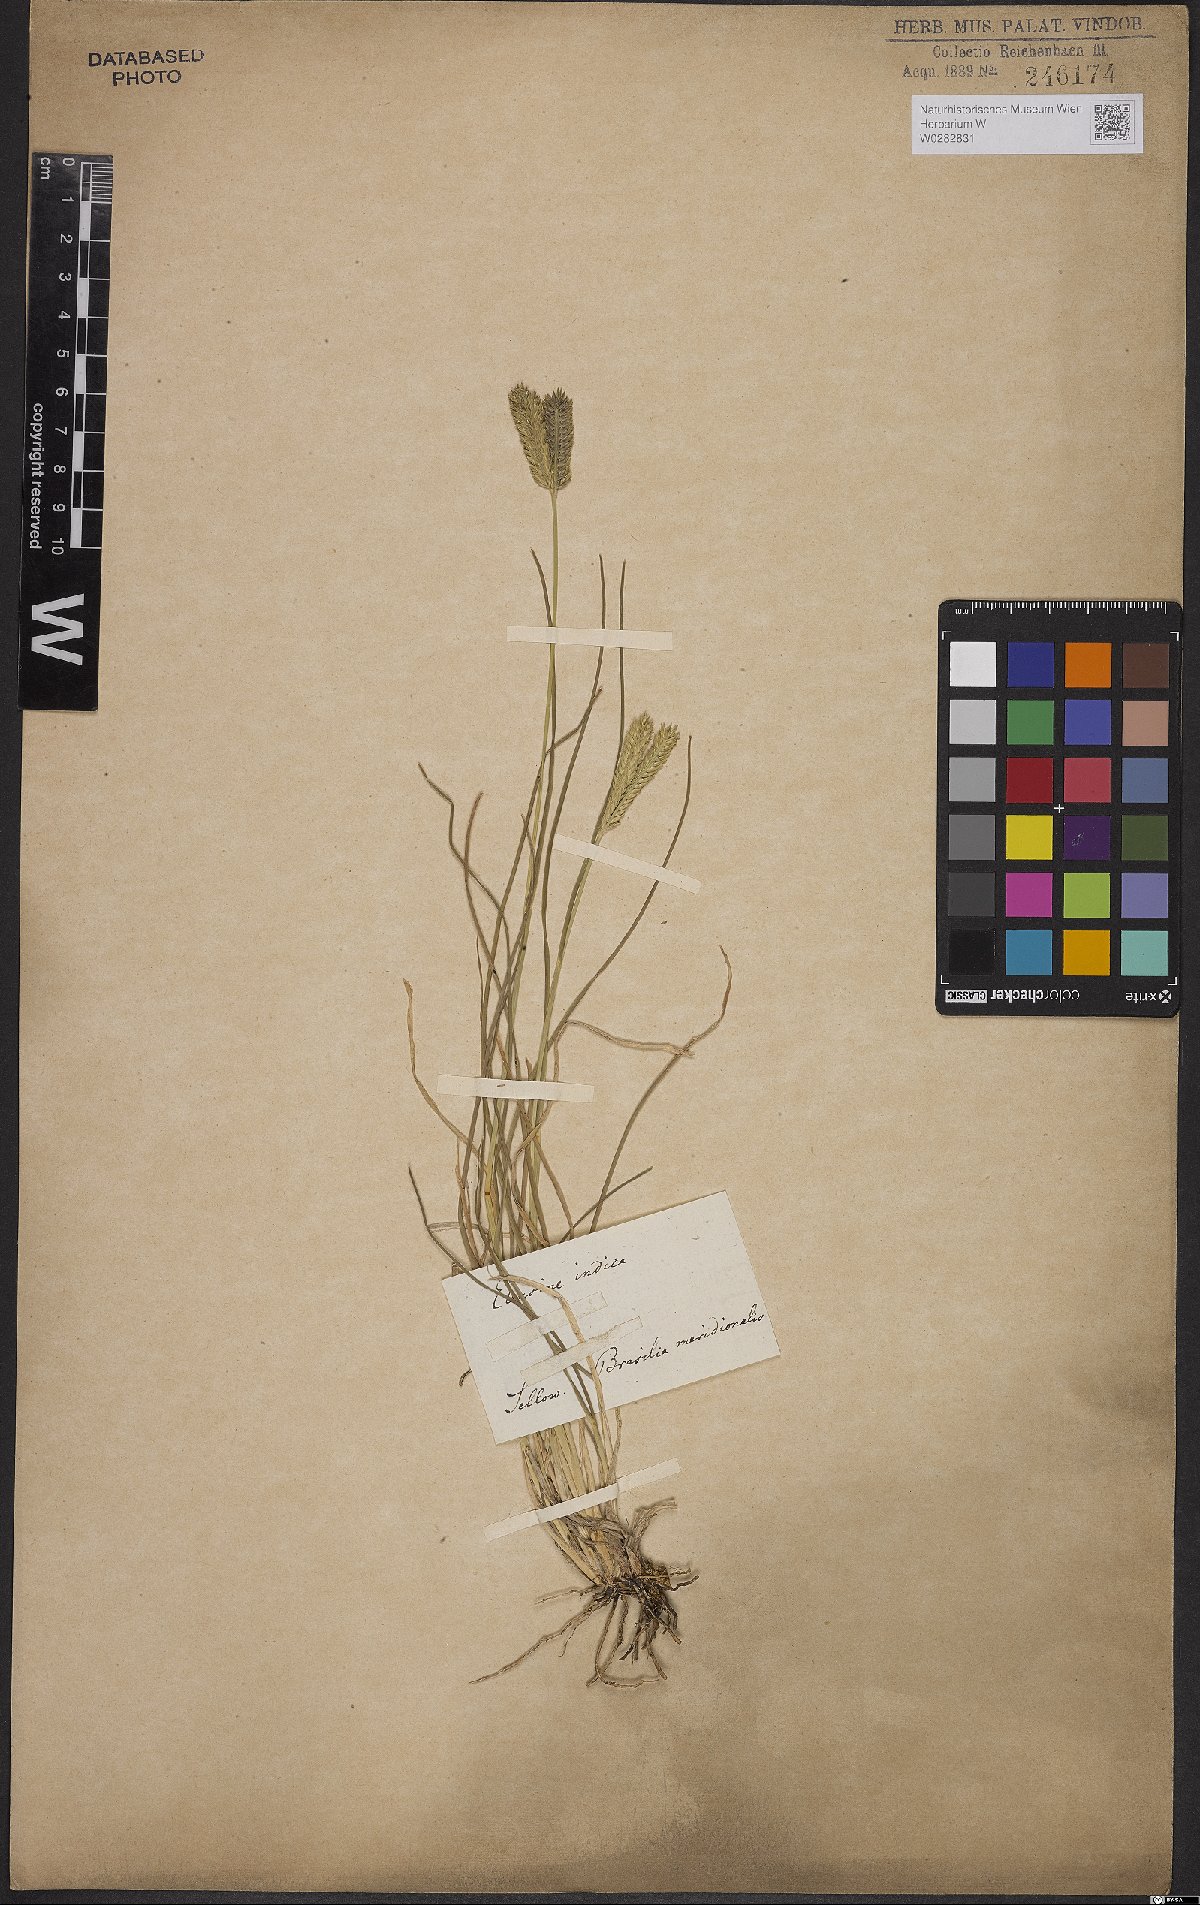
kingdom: Plantae
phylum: Tracheophyta
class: Liliopsida
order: Poales
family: Poaceae
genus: Eleusine
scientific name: Eleusine indica
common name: Yard-grass
